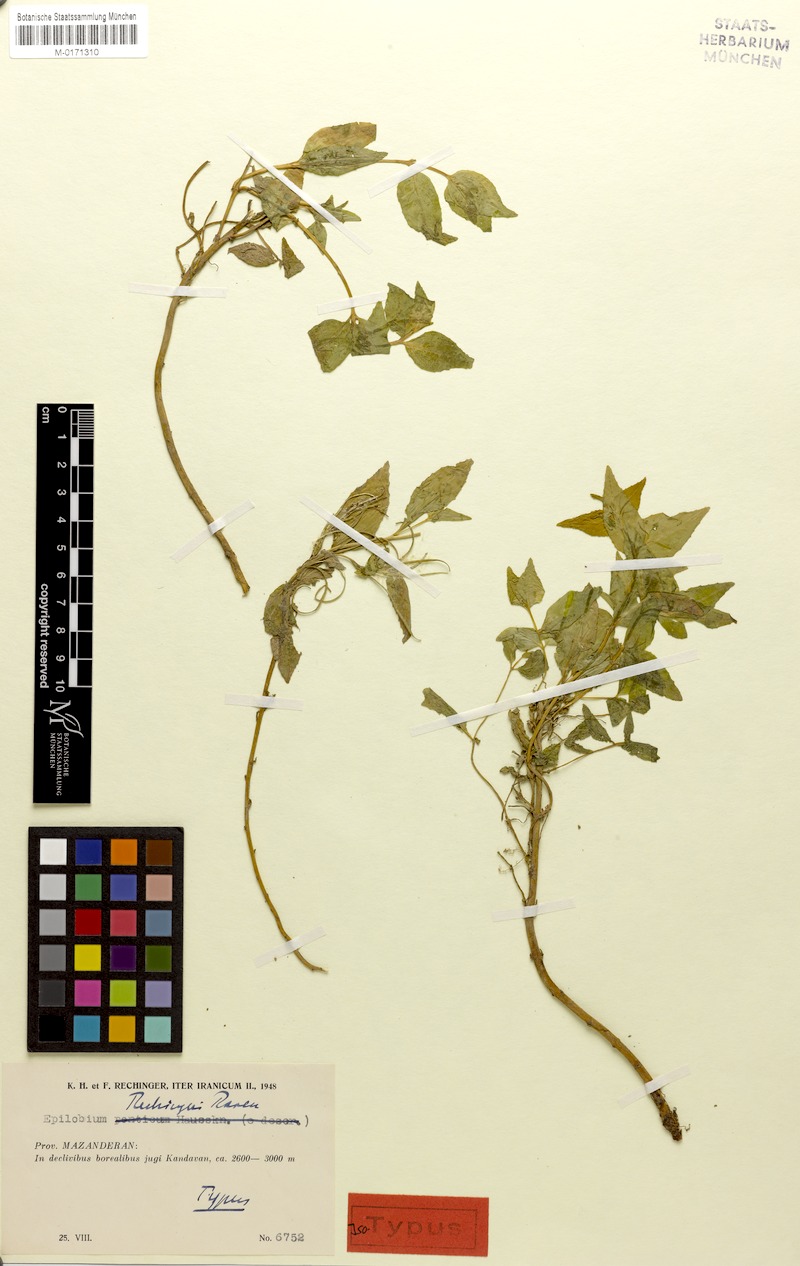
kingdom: Plantae
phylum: Tracheophyta
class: Magnoliopsida
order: Myrtales
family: Onagraceae
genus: Epilobium
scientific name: Epilobium rechingeri
